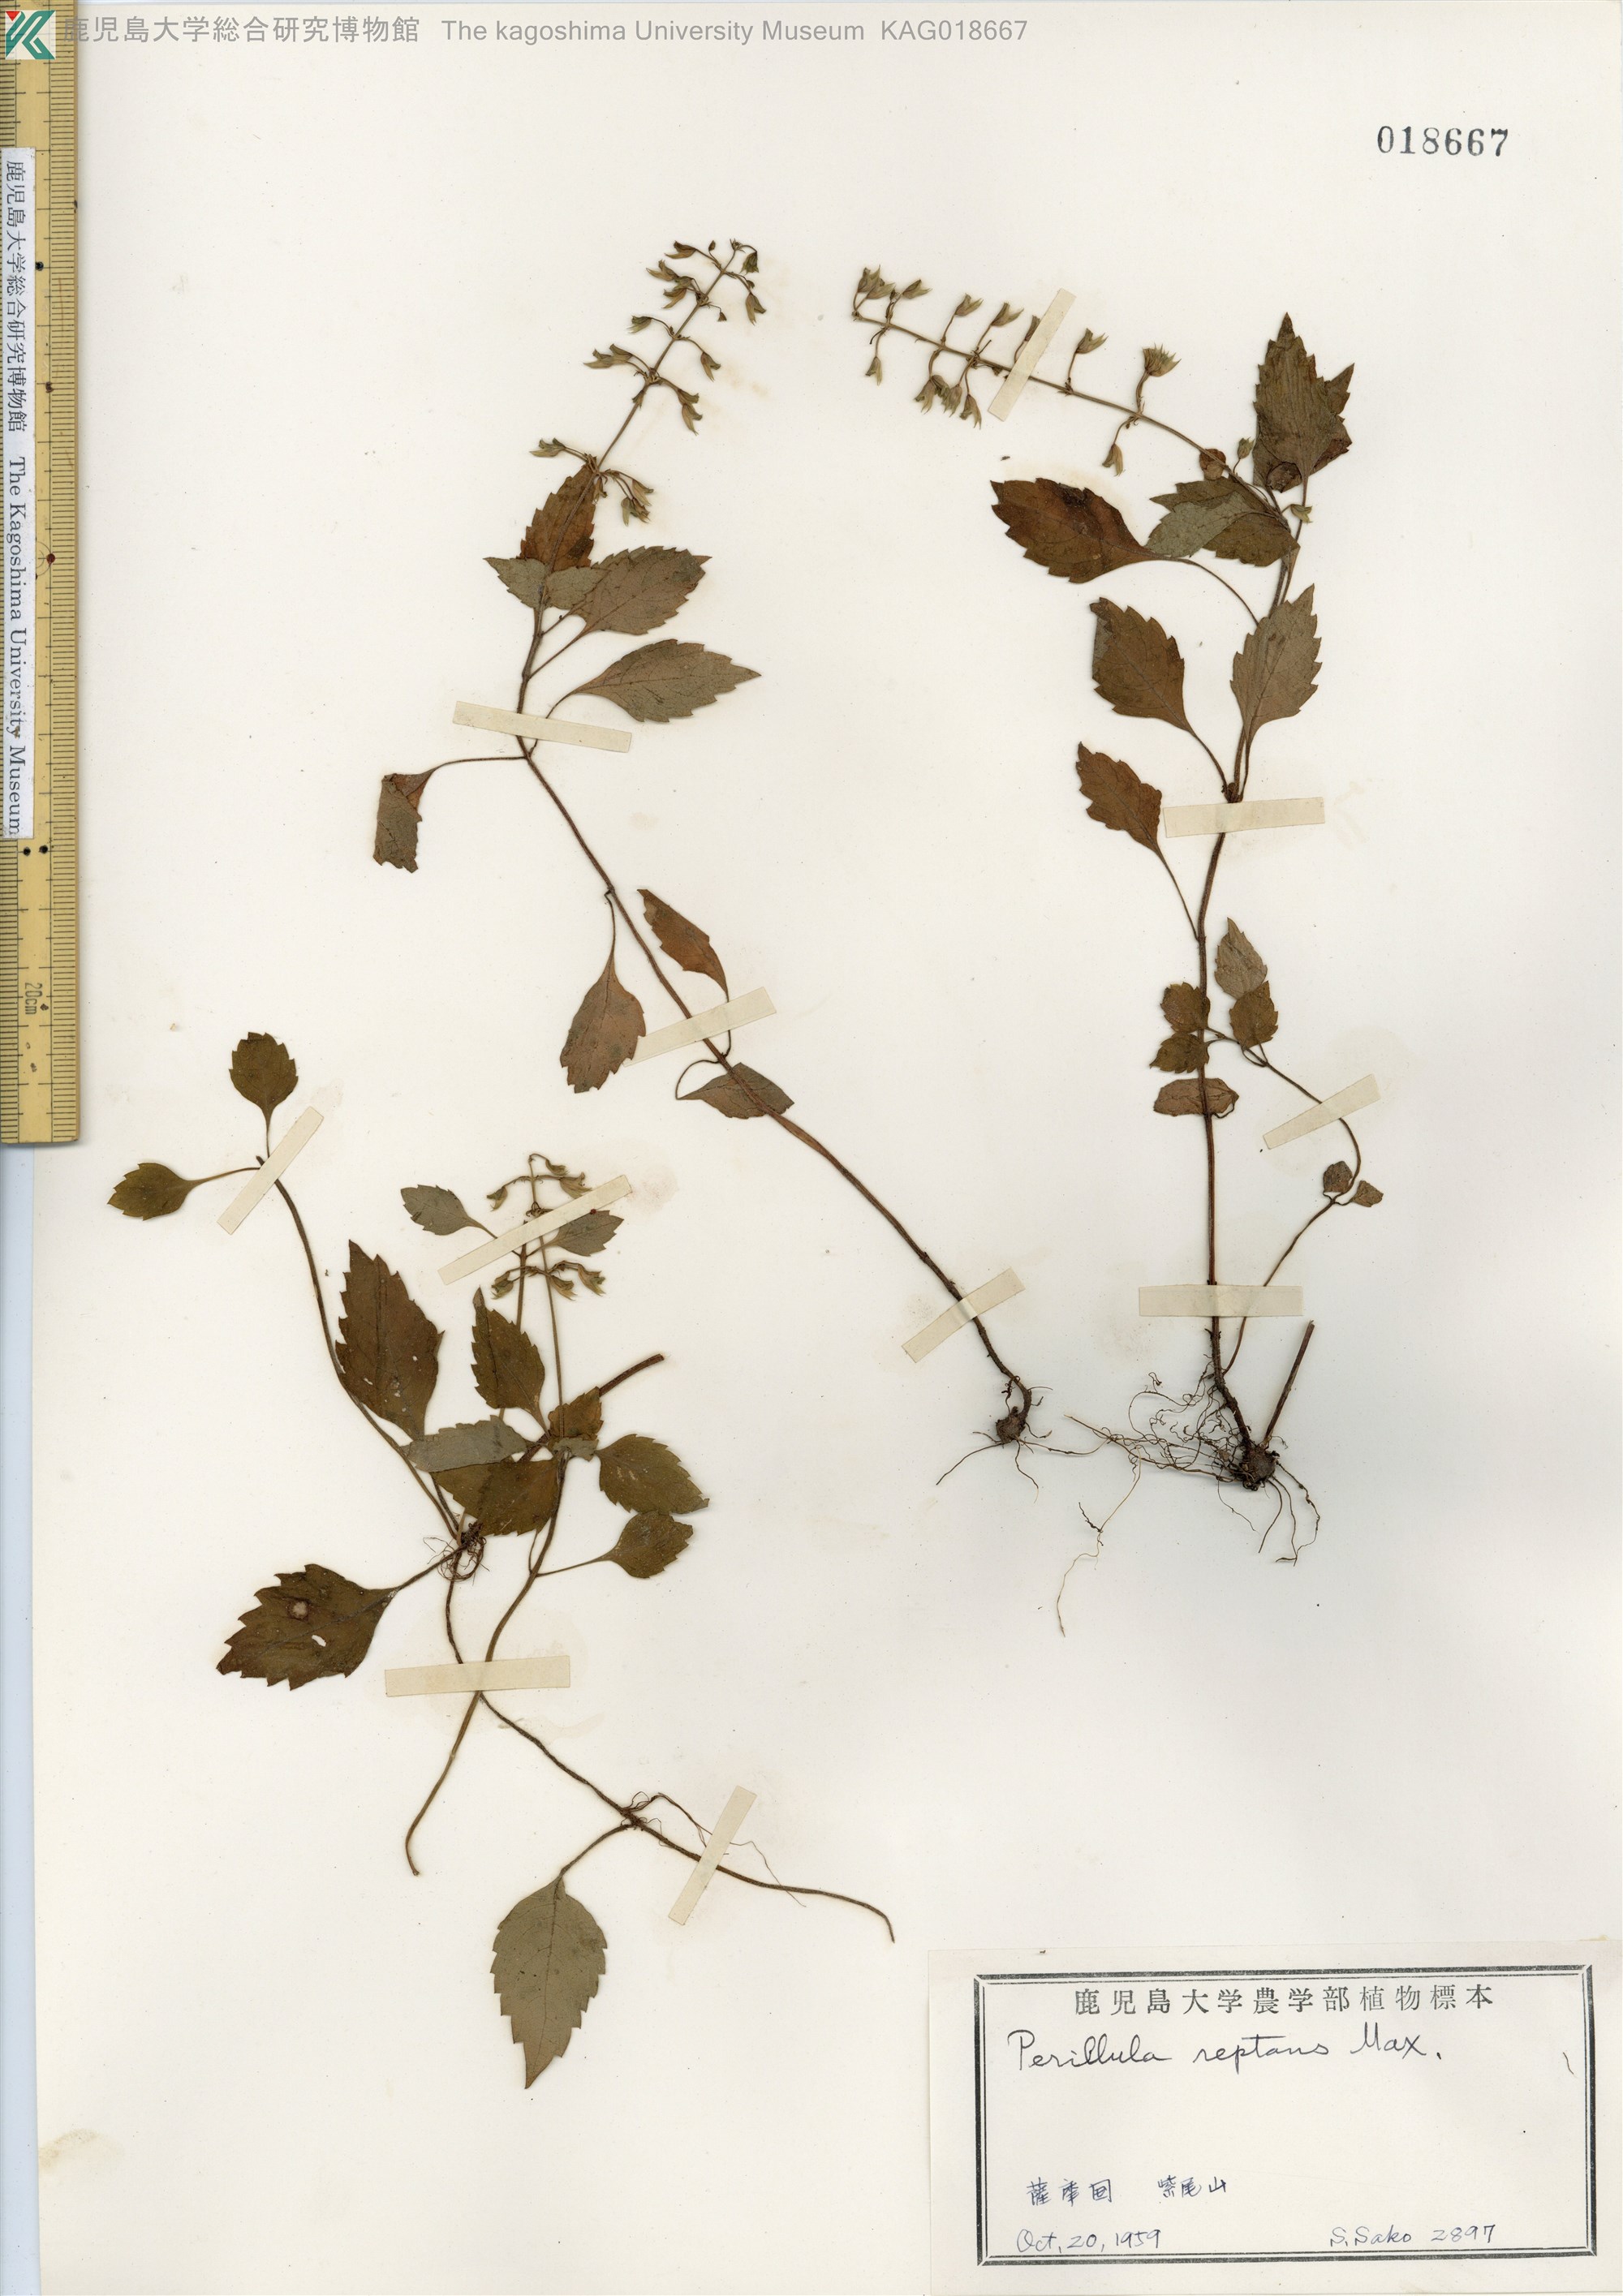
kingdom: Plantae
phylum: Tracheophyta
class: Magnoliopsida
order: Lamiales
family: Lamiaceae
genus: Perillula
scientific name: Perillula reptans
